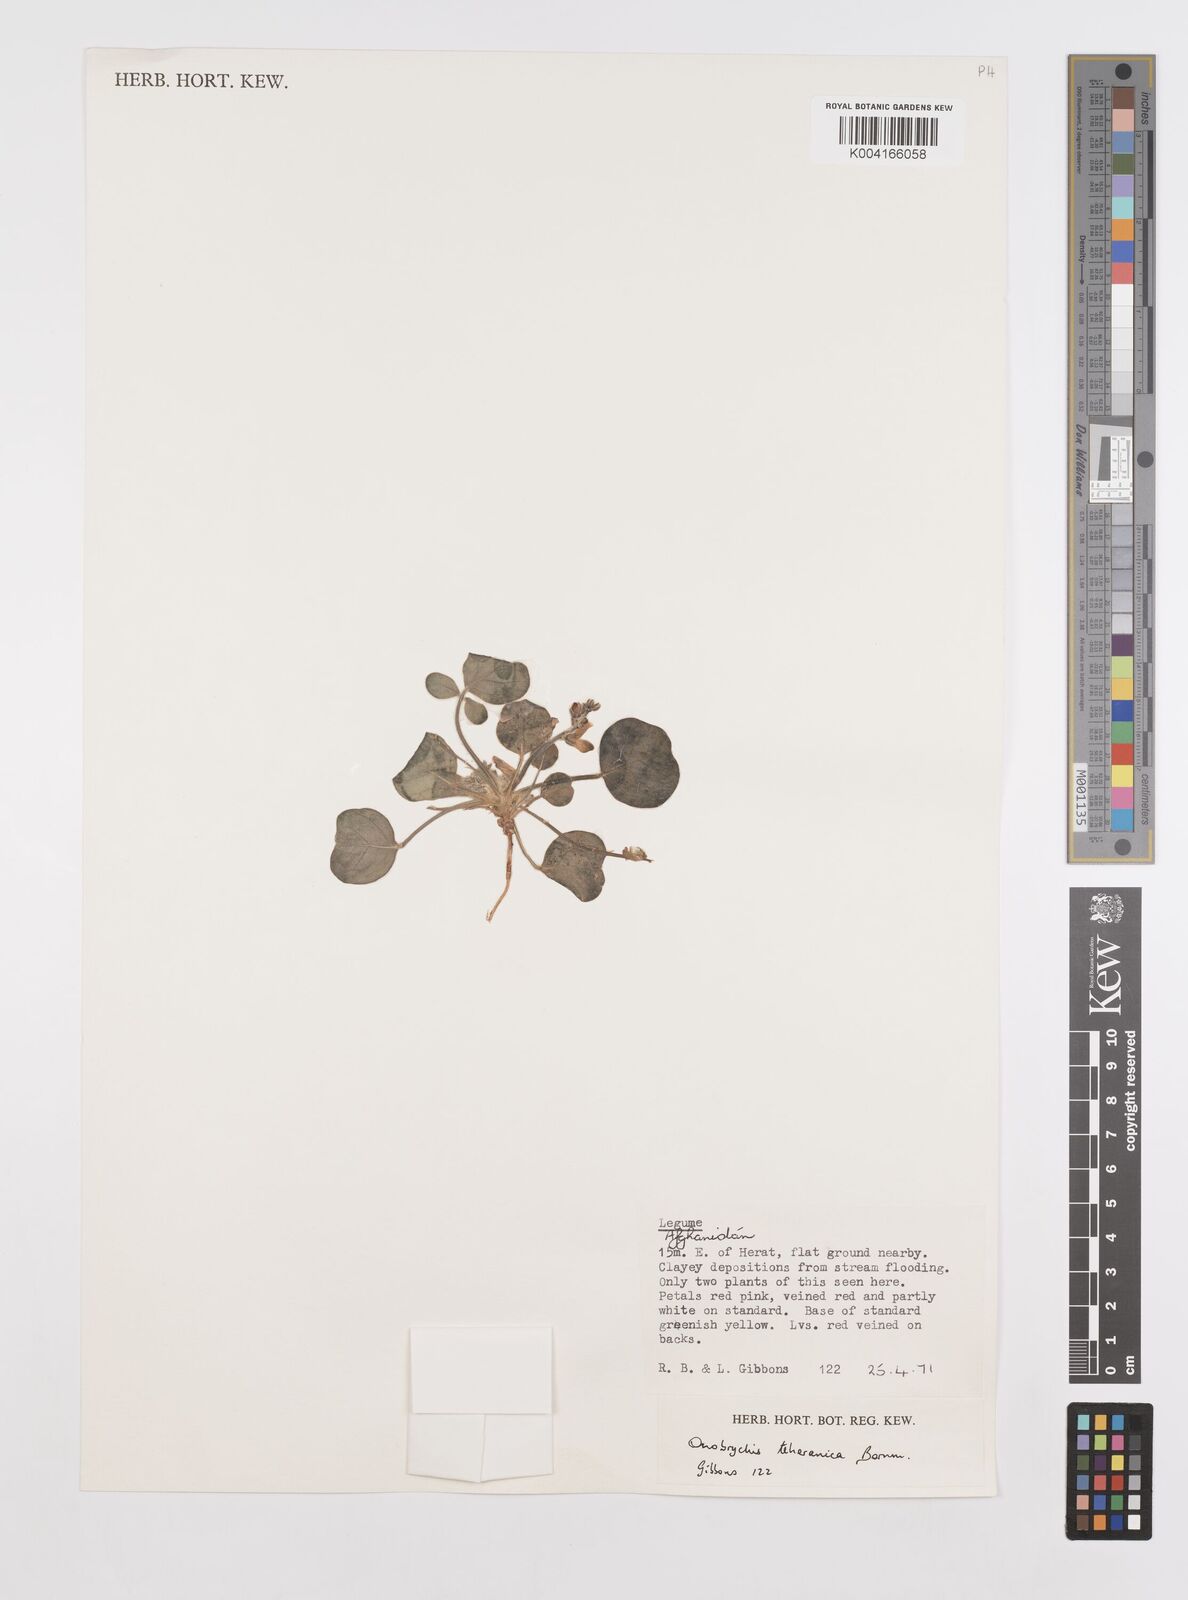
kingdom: Plantae
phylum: Tracheophyta
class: Magnoliopsida
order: Fabales
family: Fabaceae
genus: Onobrychis
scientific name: Onobrychis aucheri
